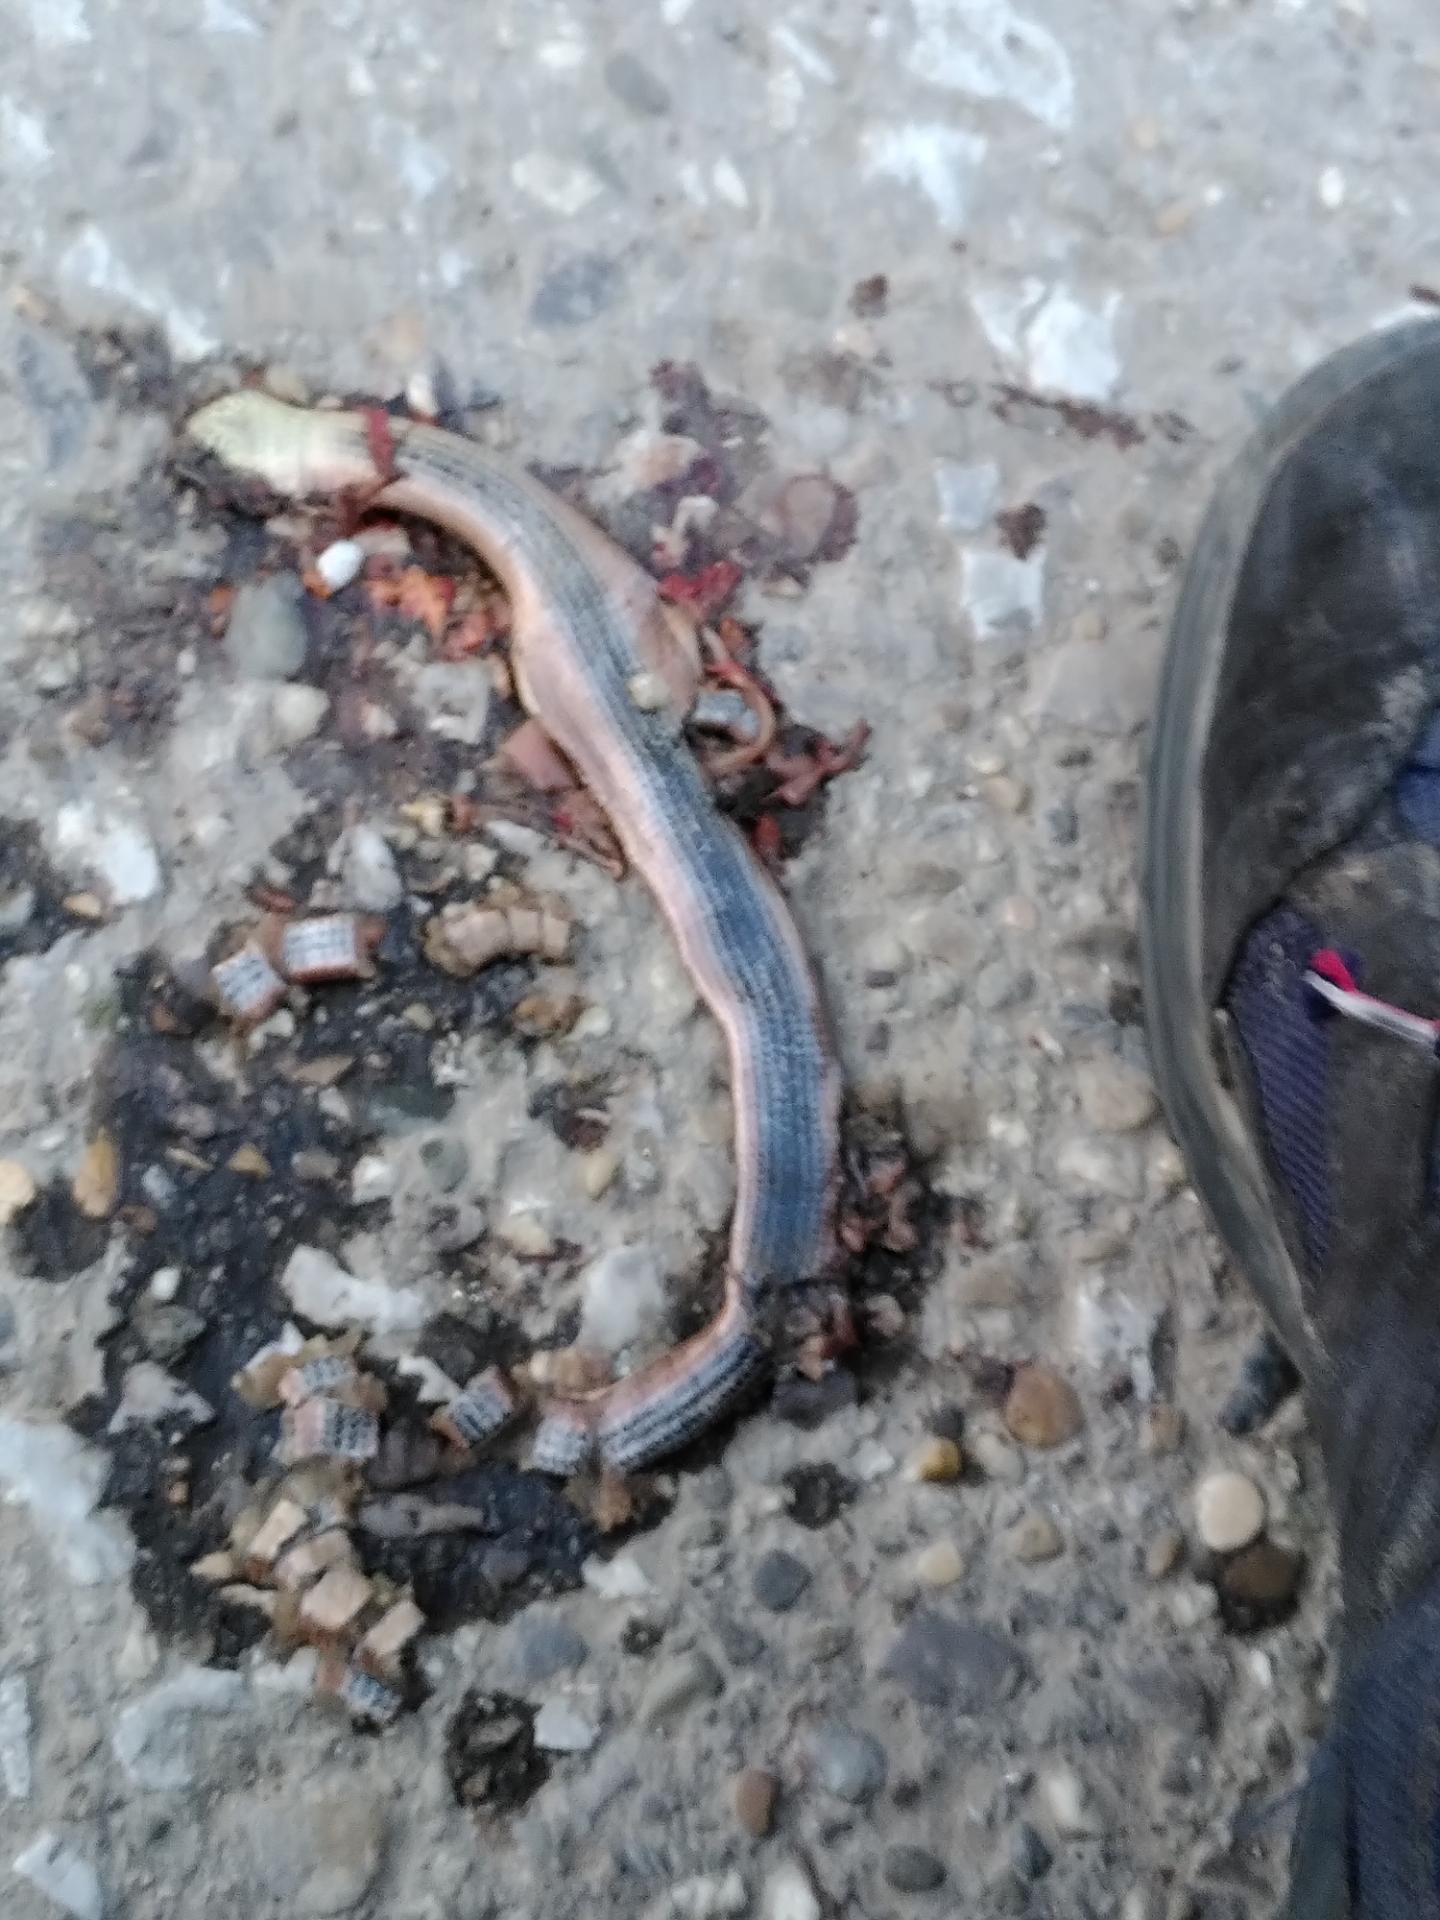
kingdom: Animalia
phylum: Chordata
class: Squamata
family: Anguidae
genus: Anguis
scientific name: Anguis fragilis
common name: Slow worm
